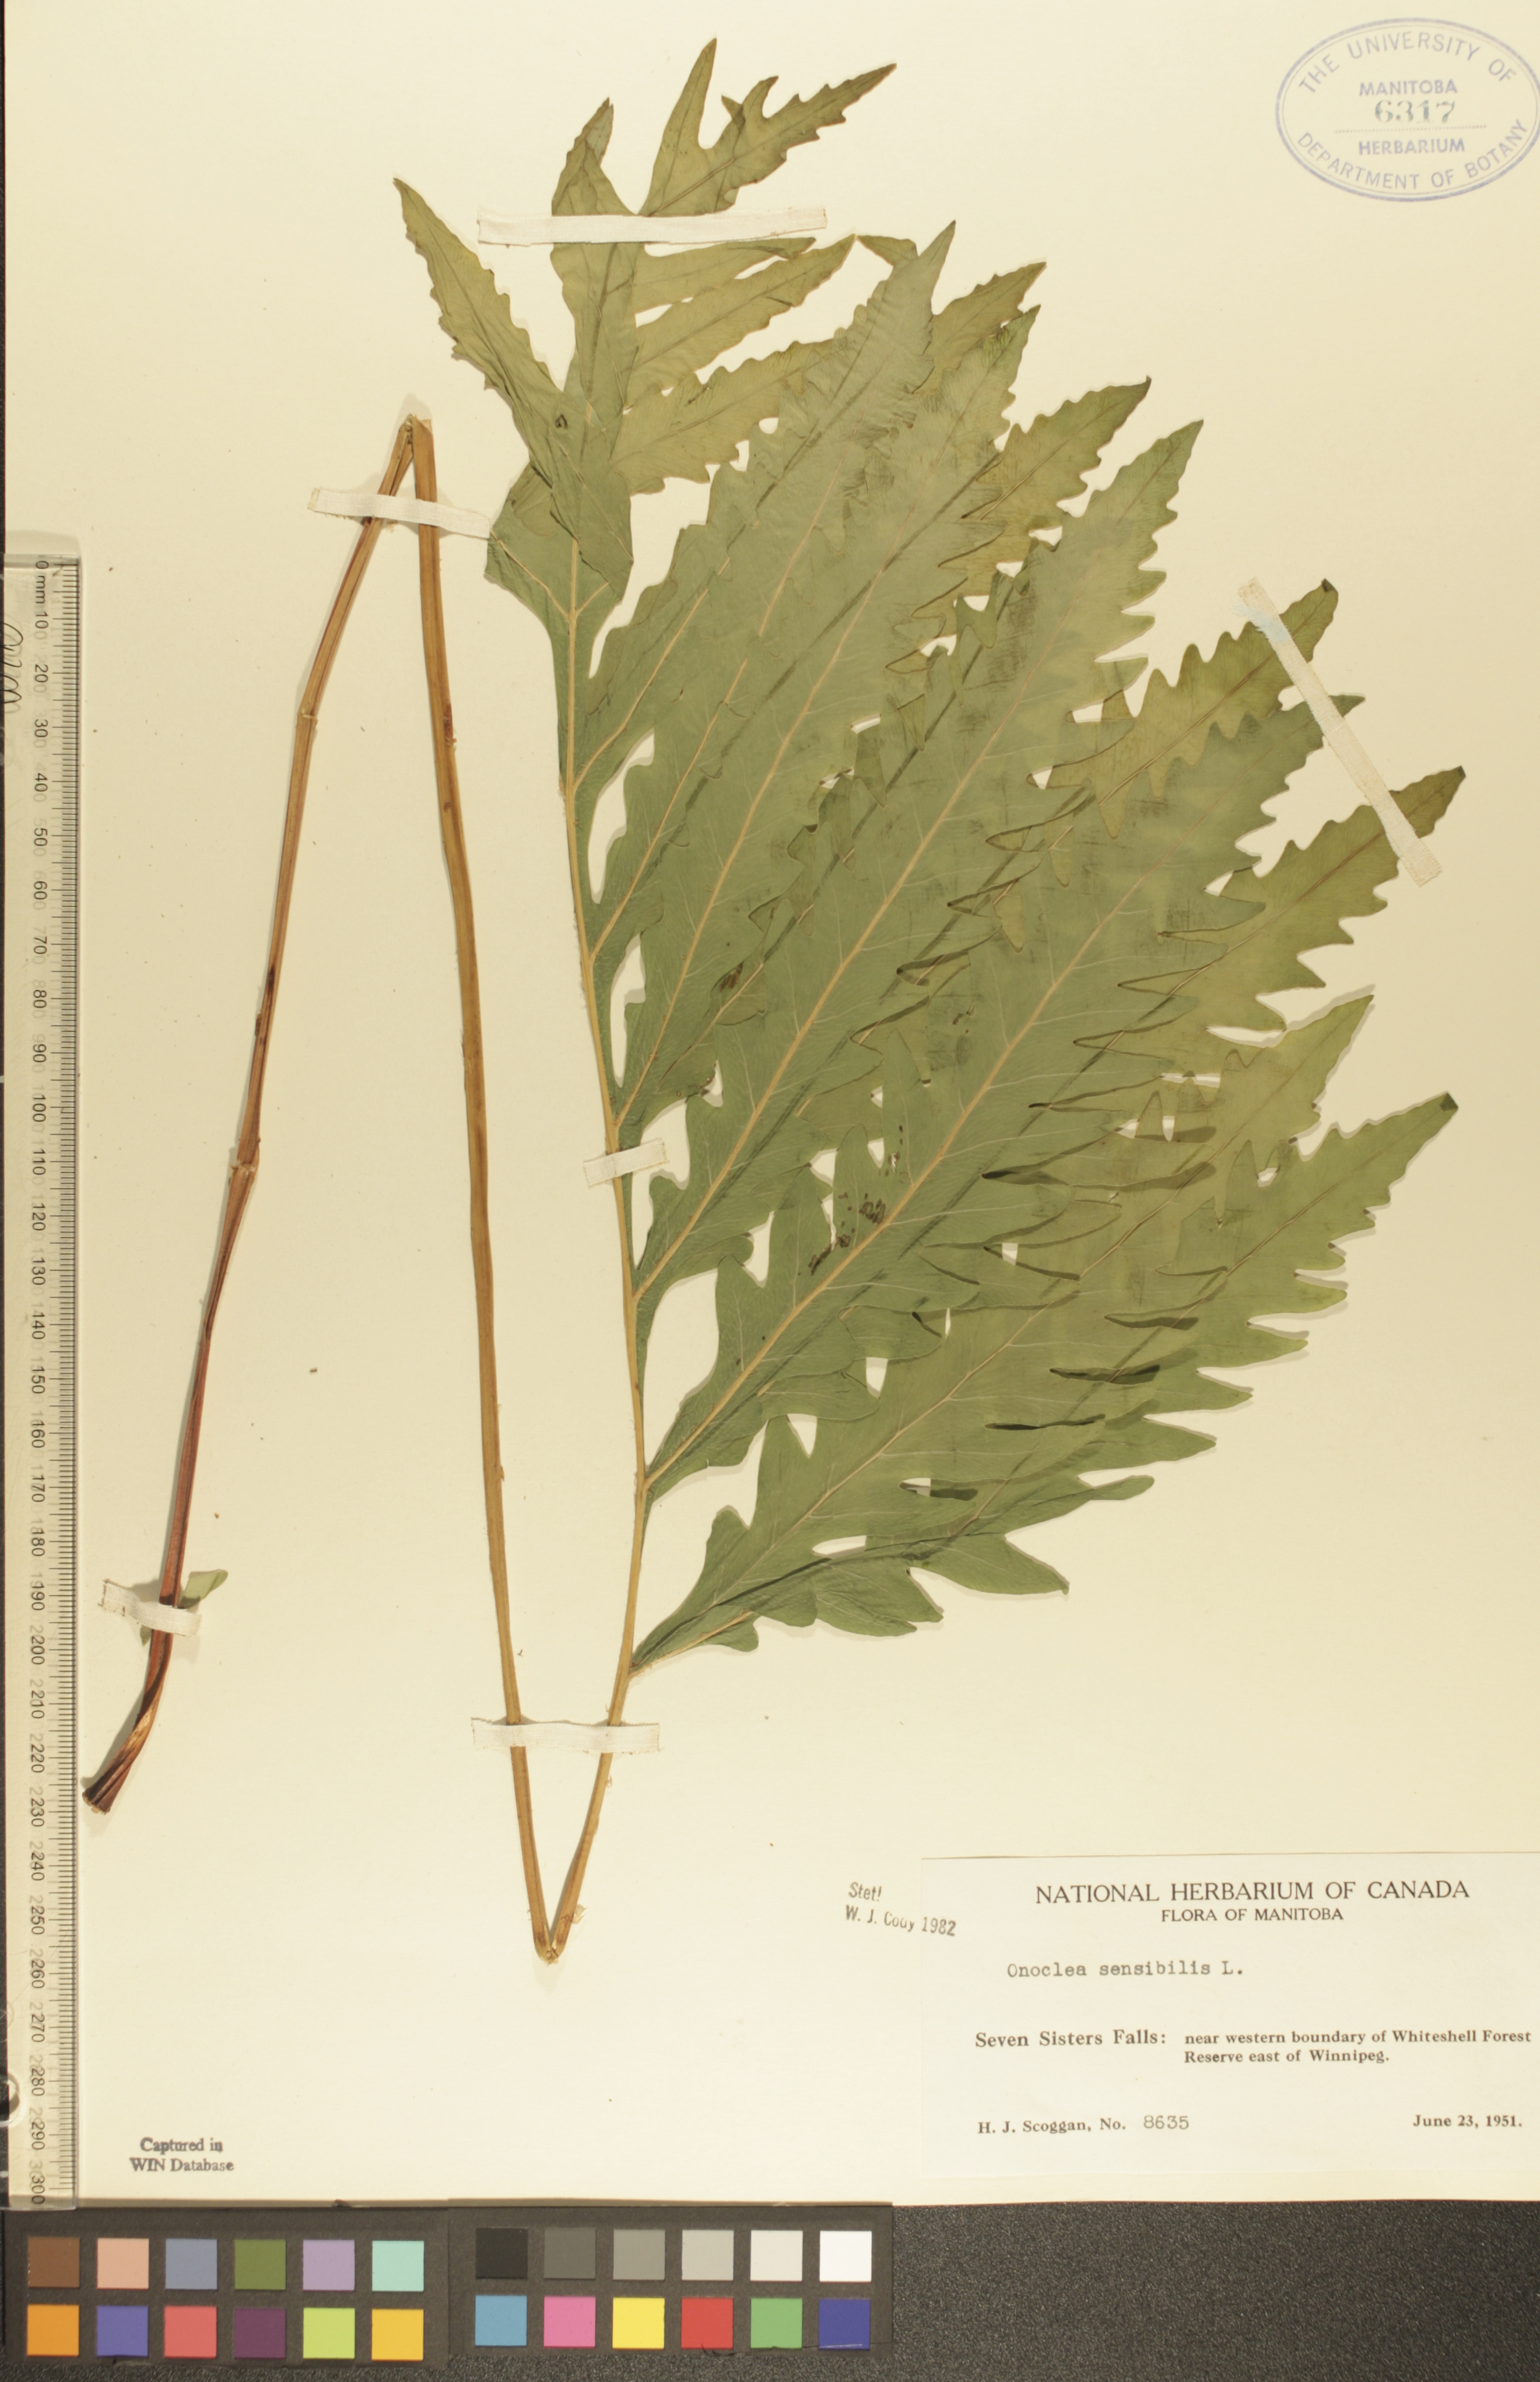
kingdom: Plantae
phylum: Tracheophyta
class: Polypodiopsida
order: Polypodiales
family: Onocleaceae
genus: Onoclea
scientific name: Onoclea sensibilis
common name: Sensitive fern
